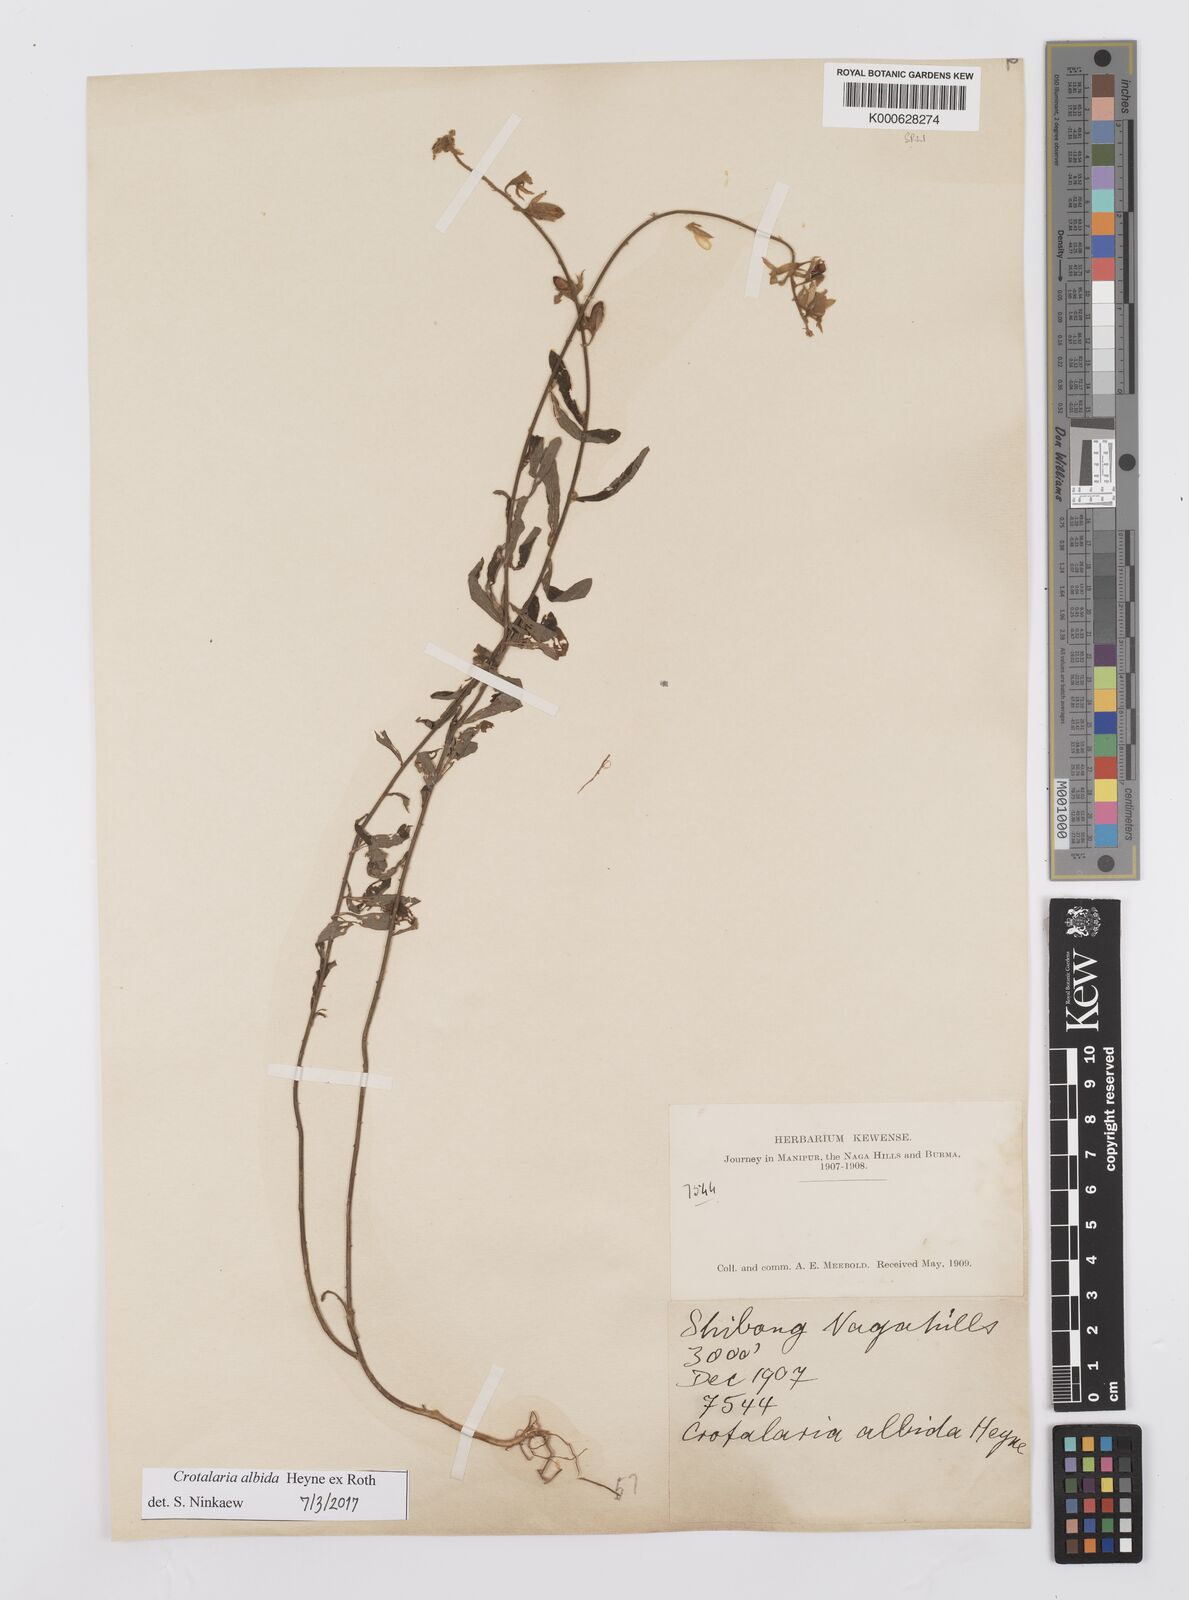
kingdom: Plantae
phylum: Tracheophyta
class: Magnoliopsida
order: Fabales
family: Fabaceae
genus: Crotalaria
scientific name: Crotalaria albida
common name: Taiwan crotalaria
